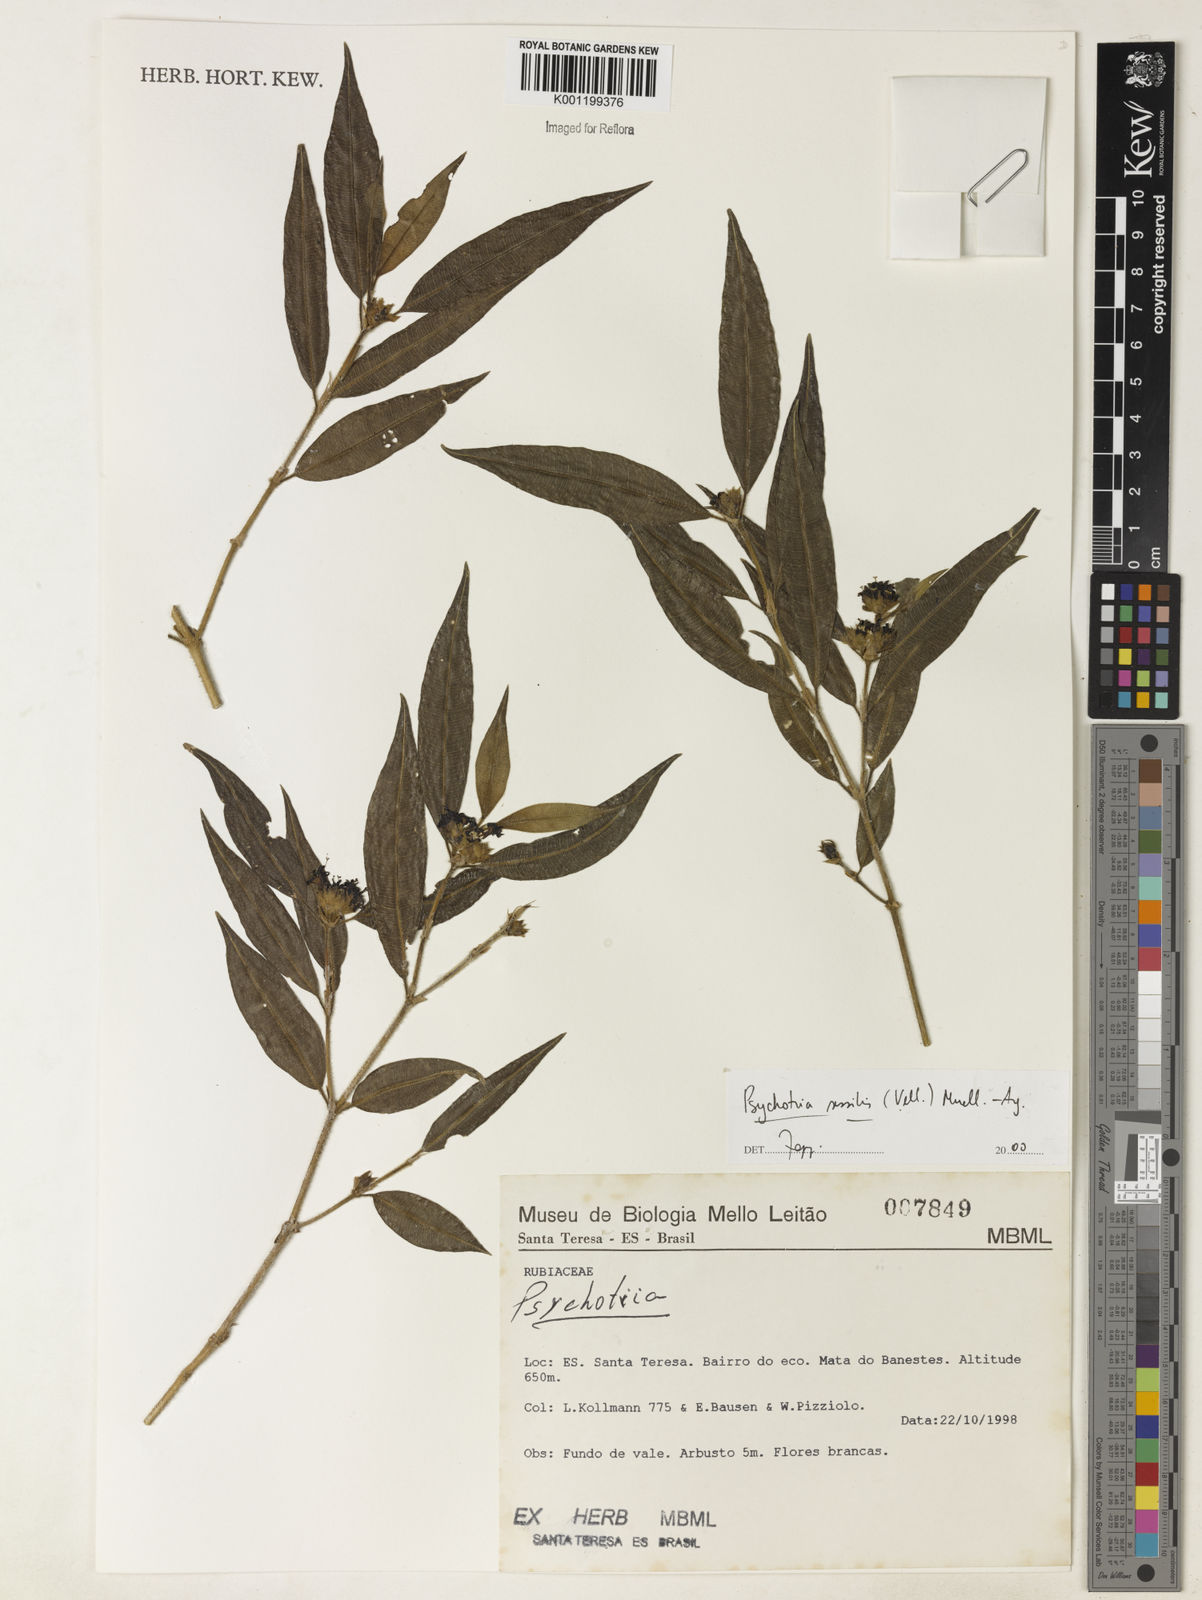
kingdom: Plantae
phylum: Tracheophyta
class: Magnoliopsida
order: Gentianales
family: Rubiaceae
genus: Rudgea
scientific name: Rudgea sessilis
